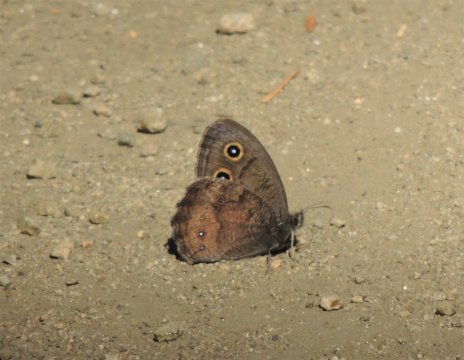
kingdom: Animalia
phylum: Arthropoda
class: Insecta
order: Lepidoptera
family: Nymphalidae
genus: Cercyonis
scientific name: Cercyonis pegala
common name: Common Wood-Nymph
